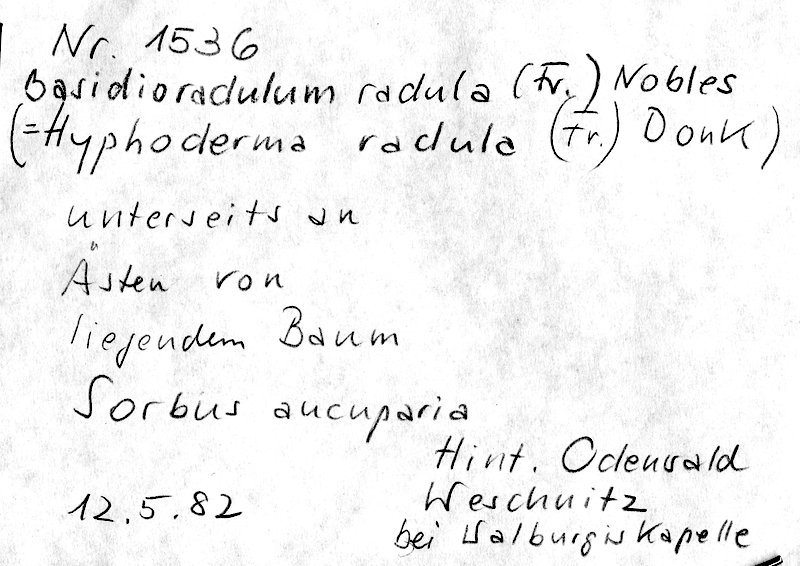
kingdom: Plantae
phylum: Tracheophyta
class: Magnoliopsida
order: Rosales
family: Rosaceae
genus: Sorbus
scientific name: Sorbus aucuparia
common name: Rowan
